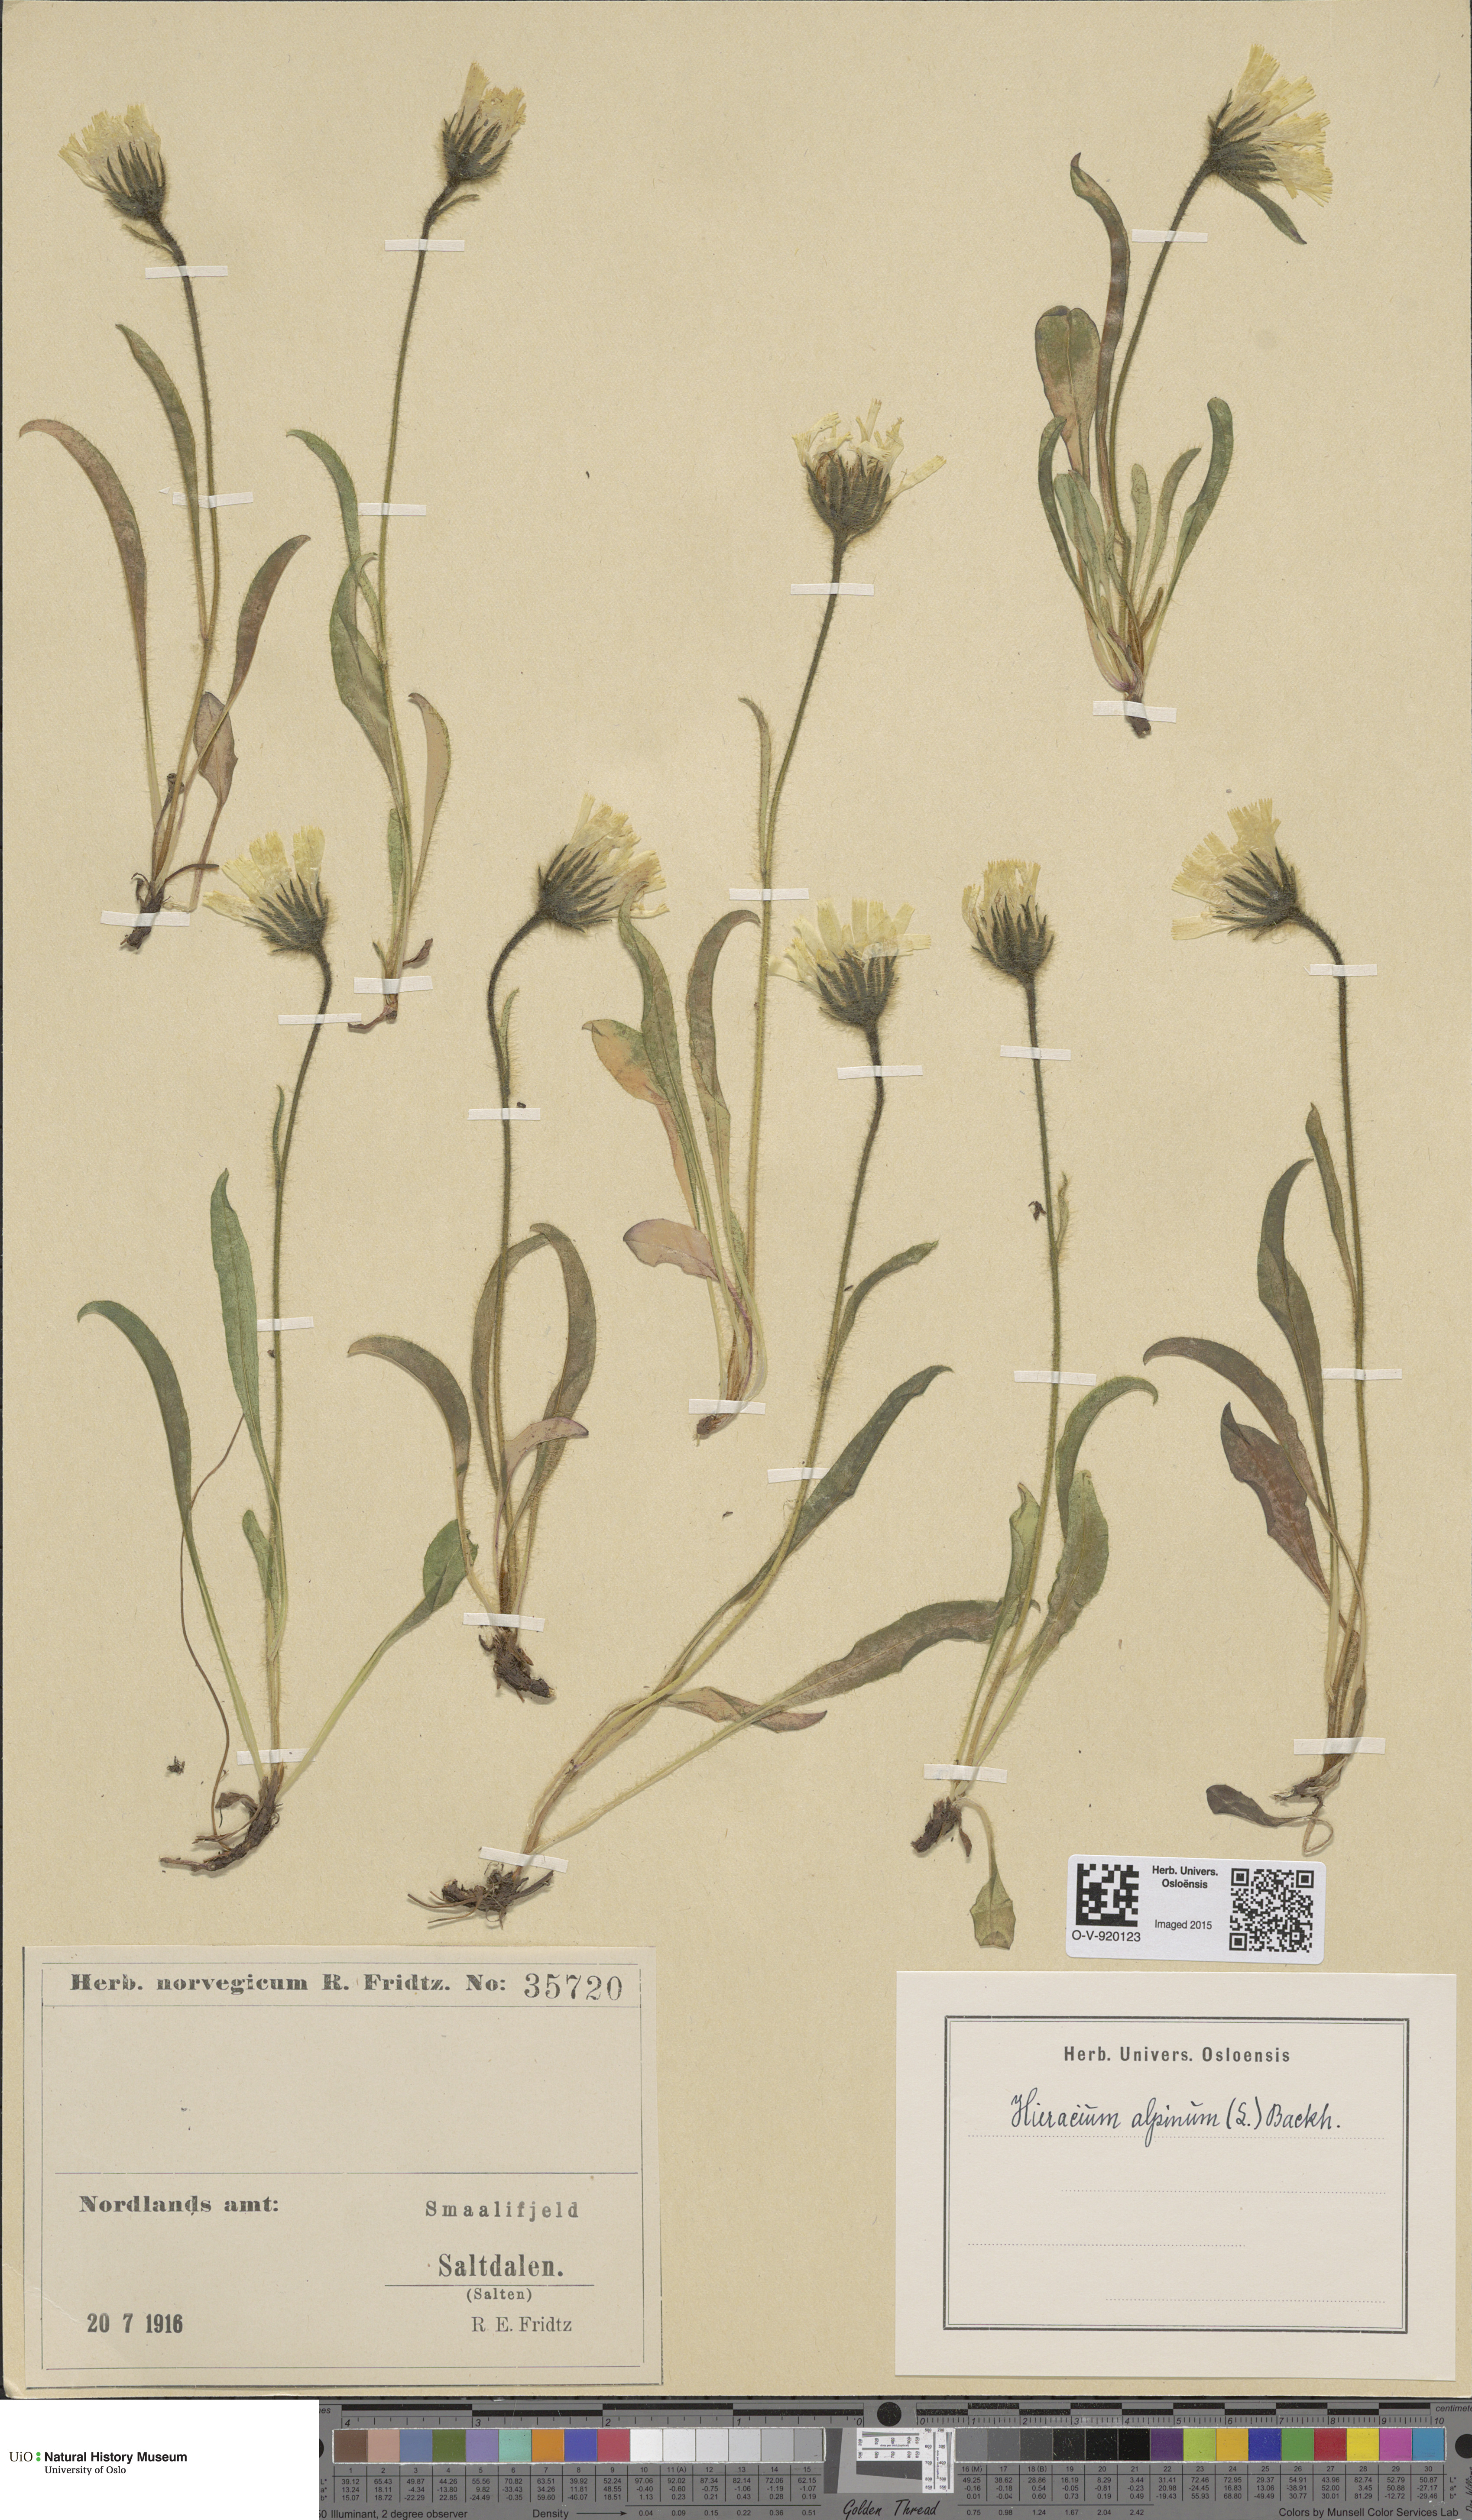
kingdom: Plantae
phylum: Tracheophyta
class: Magnoliopsida
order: Asterales
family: Asteraceae
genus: Hieracium
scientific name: Hieracium alpinum
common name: Alpine hawkweed
